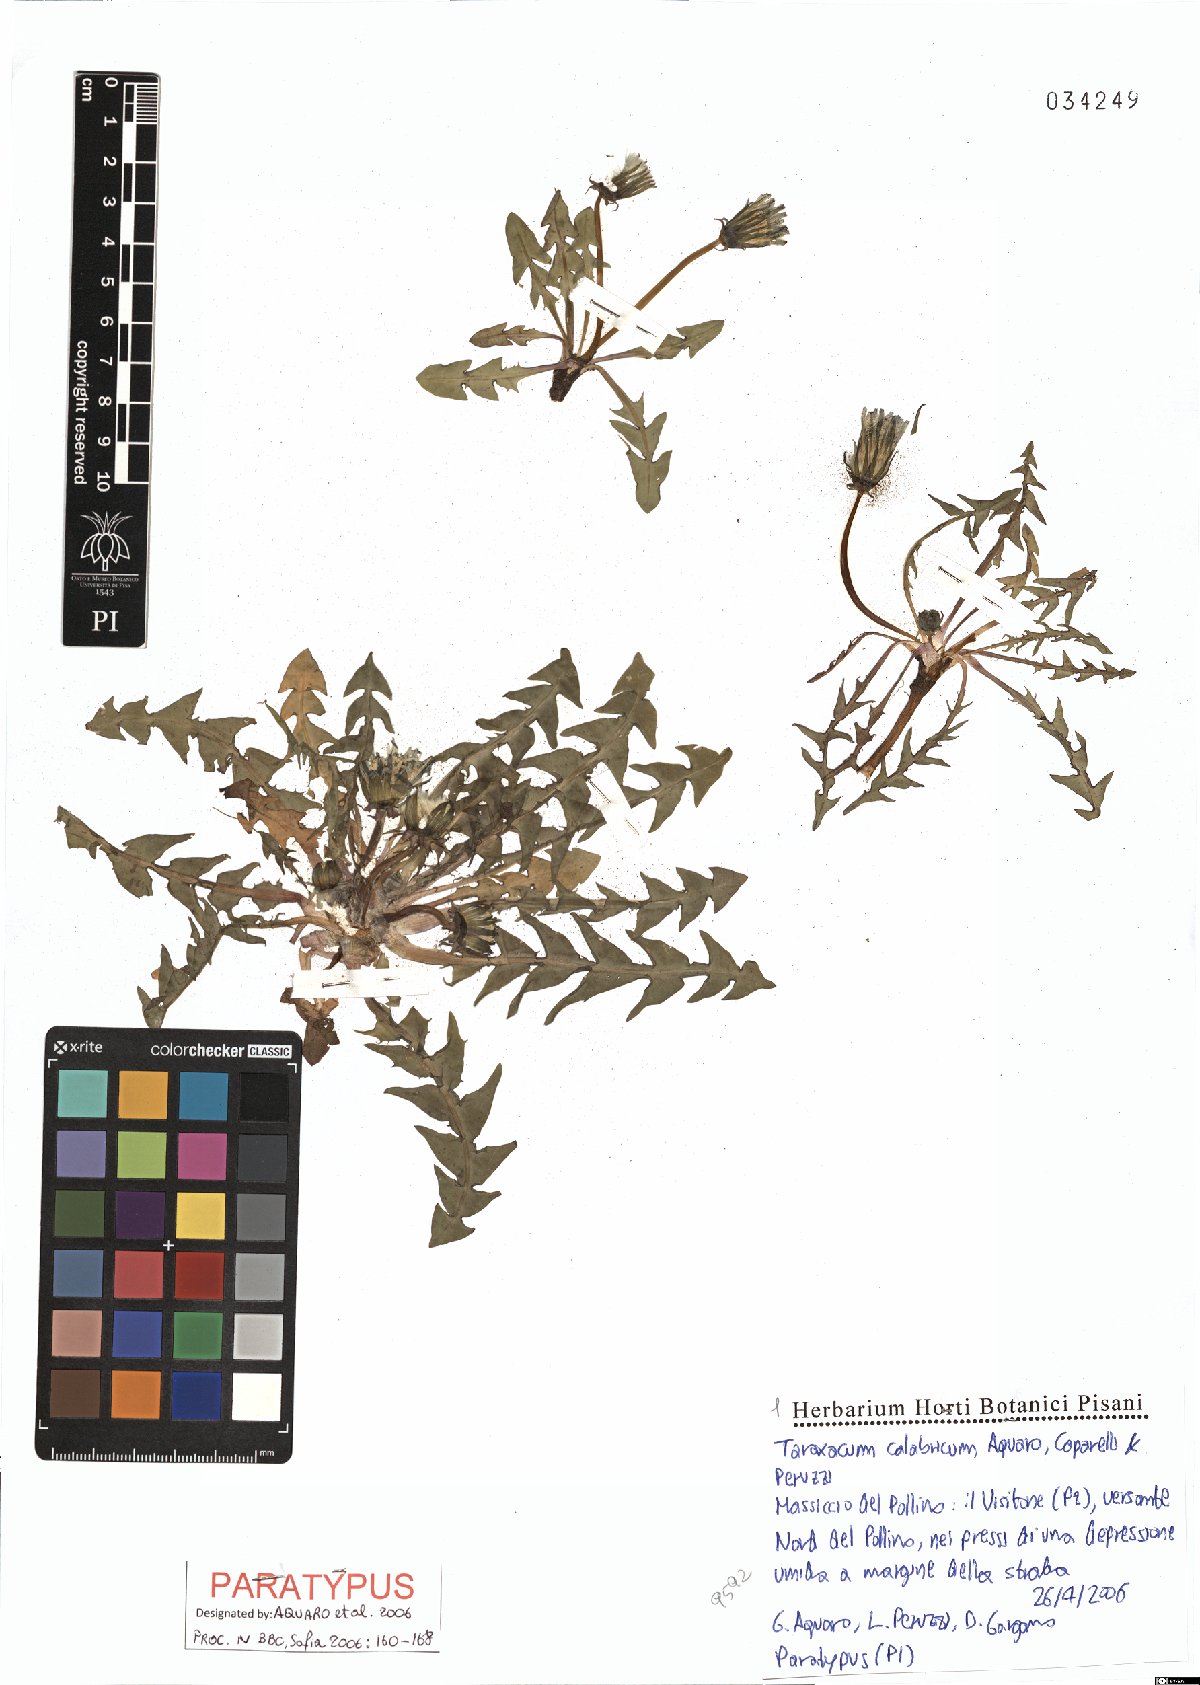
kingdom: Plantae
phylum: Tracheophyta
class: Magnoliopsida
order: Asterales
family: Asteraceae
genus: Taraxacum
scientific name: Taraxacum calabricum
